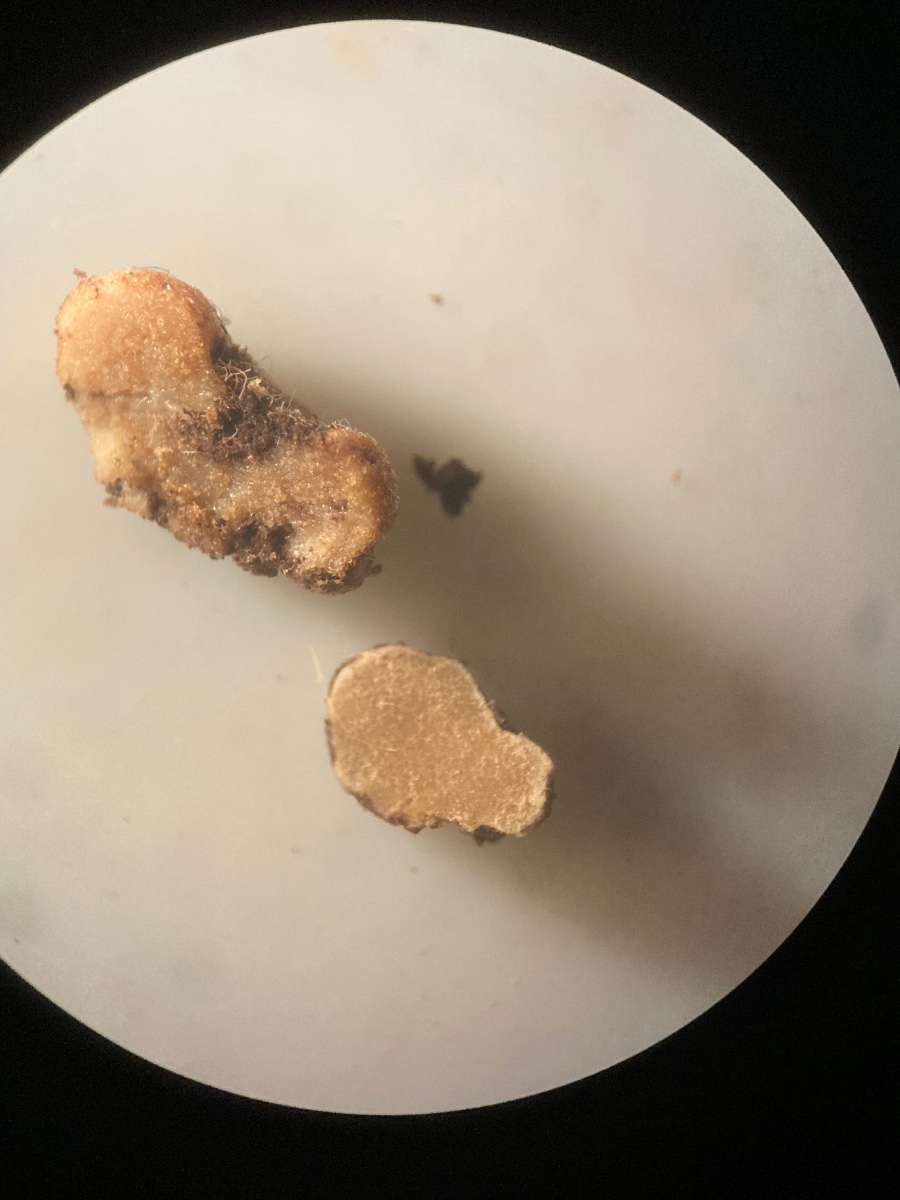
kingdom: Fungi
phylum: Glomeromycota
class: Glomeromycetes
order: Glomerales
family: Glomeraceae
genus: Glomus
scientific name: Glomus microcarpum
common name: Small-spored pea truffle
